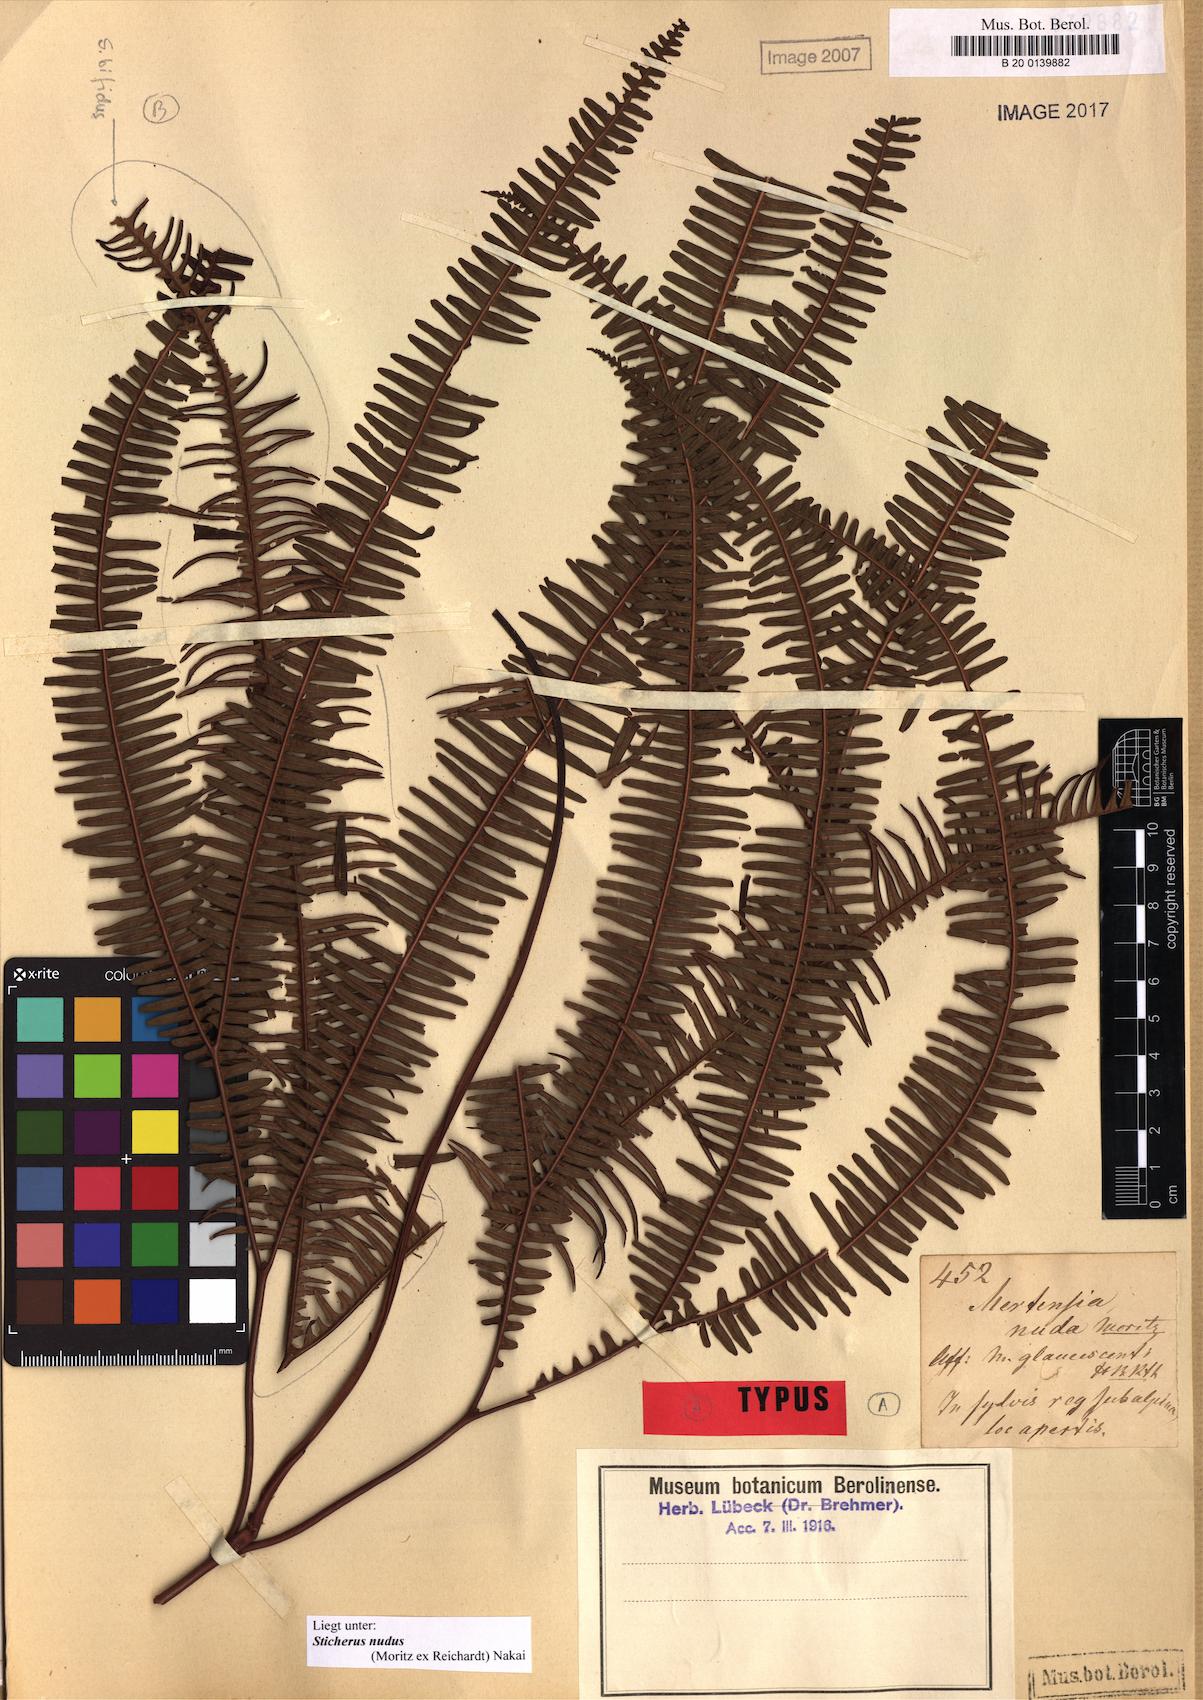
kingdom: Plantae
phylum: Tracheophyta
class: Polypodiopsida
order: Gleicheniales
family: Gleicheniaceae
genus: Sticherus
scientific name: Sticherus nudus
